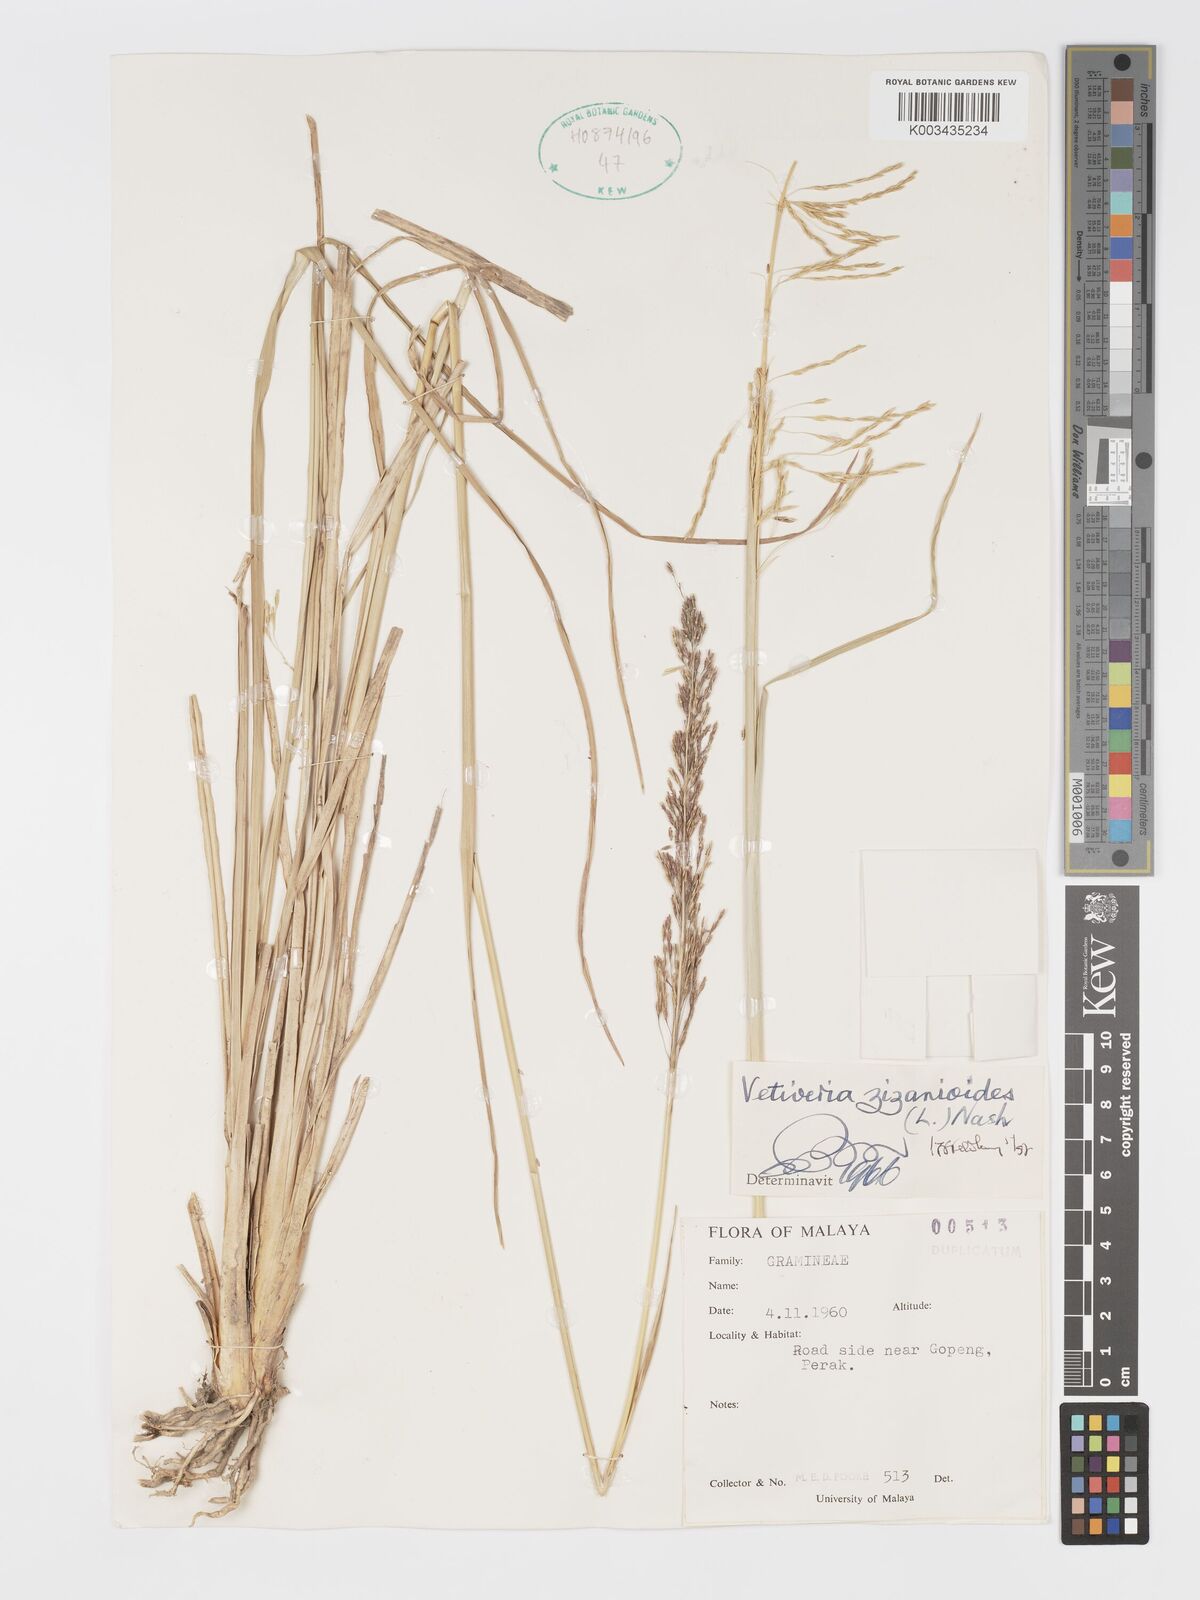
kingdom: Plantae
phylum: Tracheophyta
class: Liliopsida
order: Poales
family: Poaceae
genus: Chrysopogon
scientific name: Chrysopogon zizanioides
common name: False beardgrass
